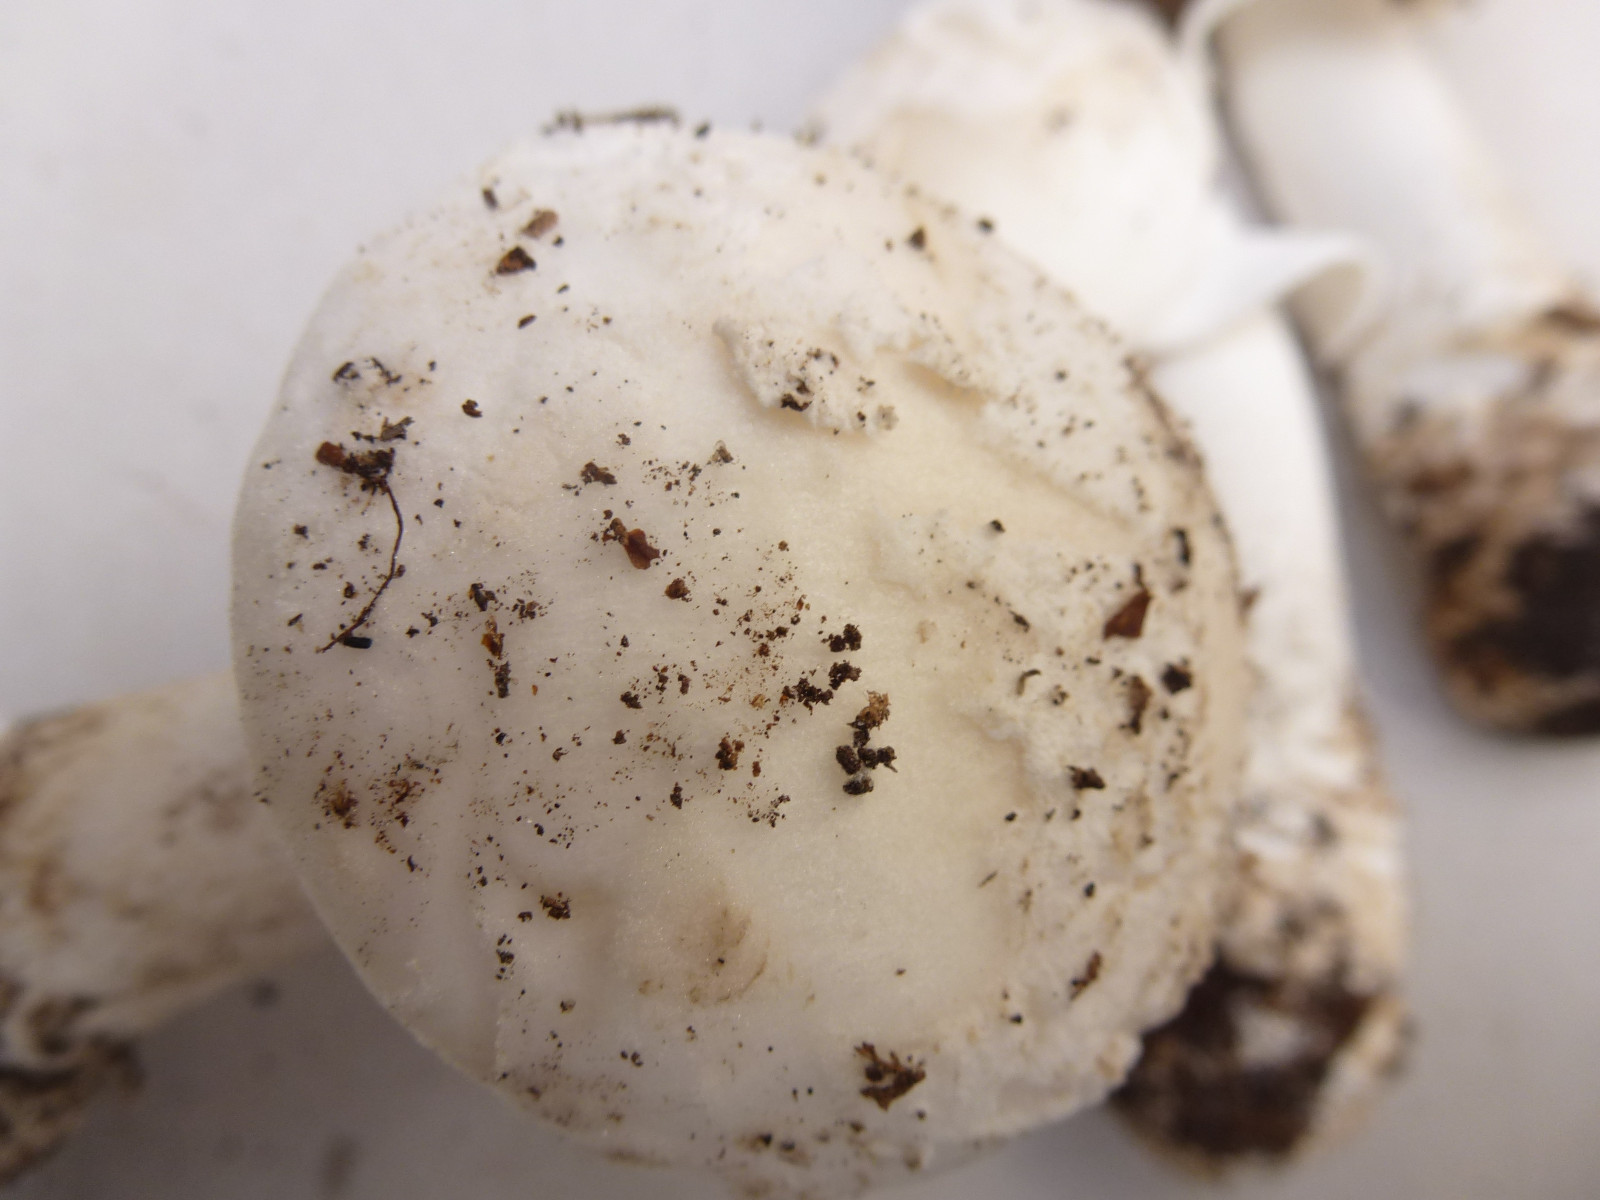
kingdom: Fungi
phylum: Basidiomycota
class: Agaricomycetes
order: Agaricales
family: Amanitaceae
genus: Amanita
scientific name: Amanita
